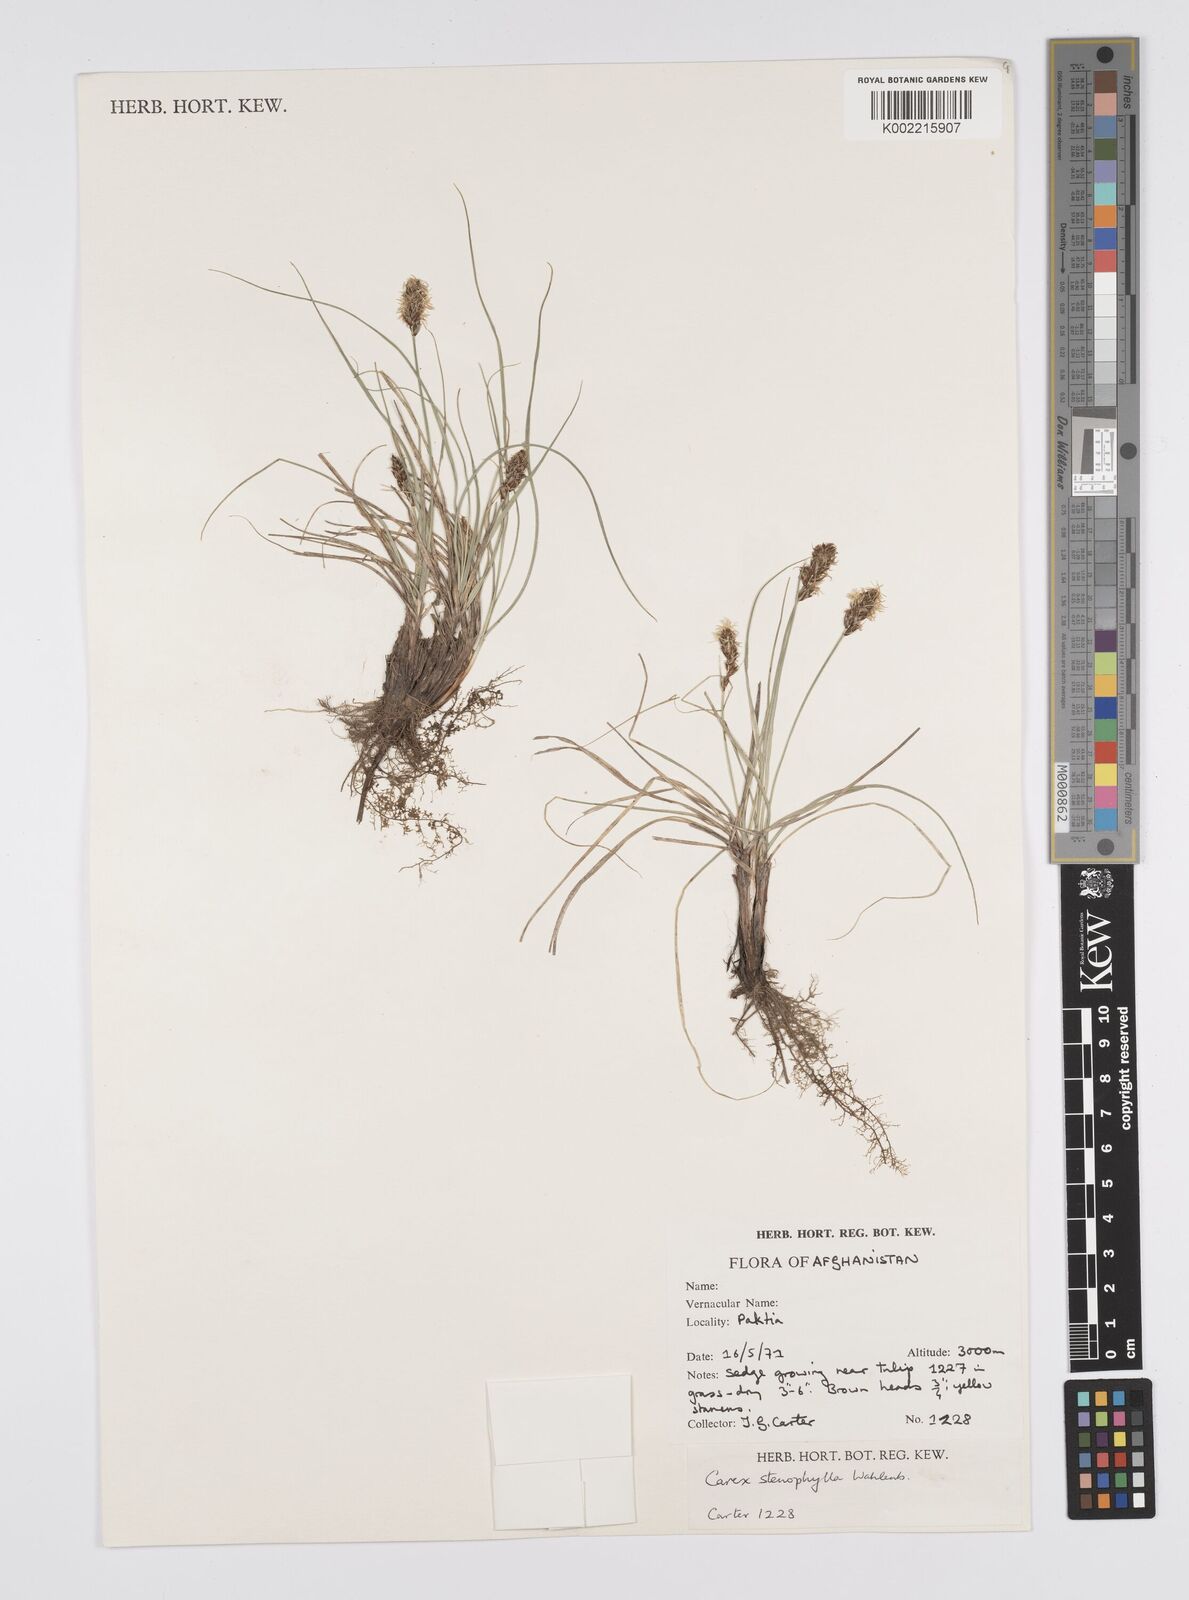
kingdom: Plantae
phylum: Tracheophyta
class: Liliopsida
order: Poales
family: Cyperaceae
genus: Carex
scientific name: Carex stenophylla
